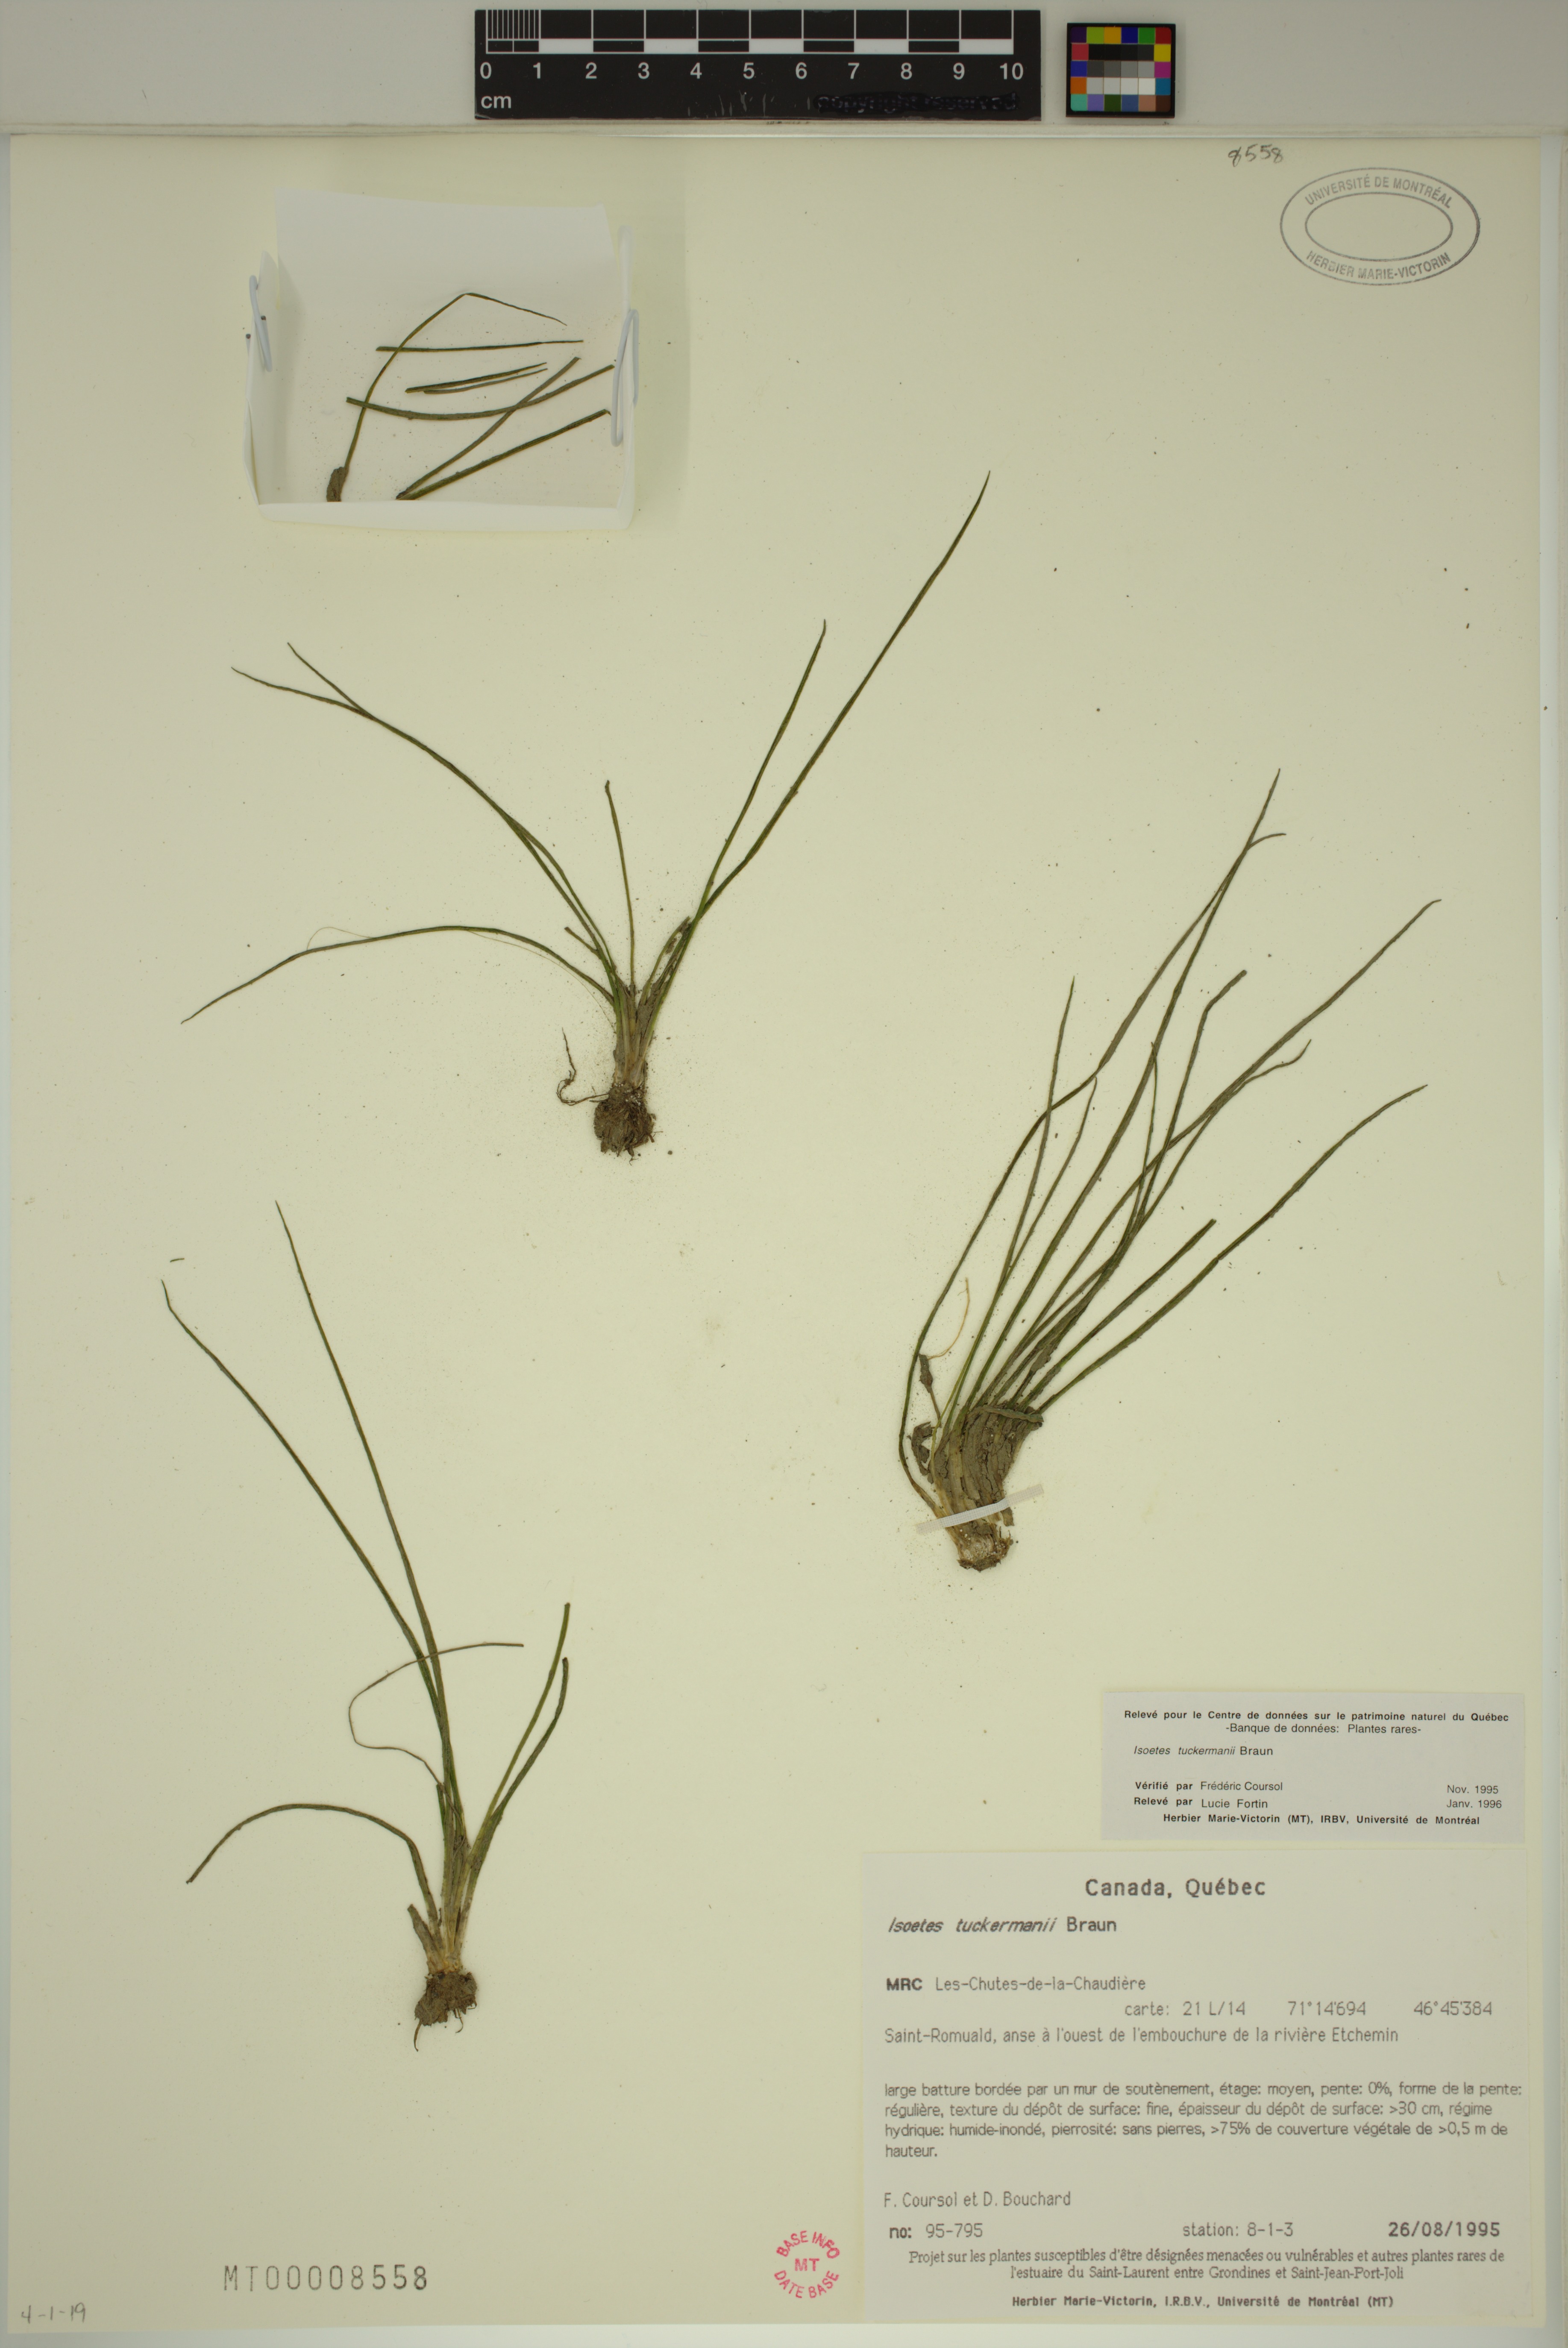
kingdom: Plantae
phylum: Tracheophyta
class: Lycopodiopsida
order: Isoetales
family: Isoetaceae
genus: Isoetes
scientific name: Isoetes laurentiana
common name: St. lawrence quillwort
